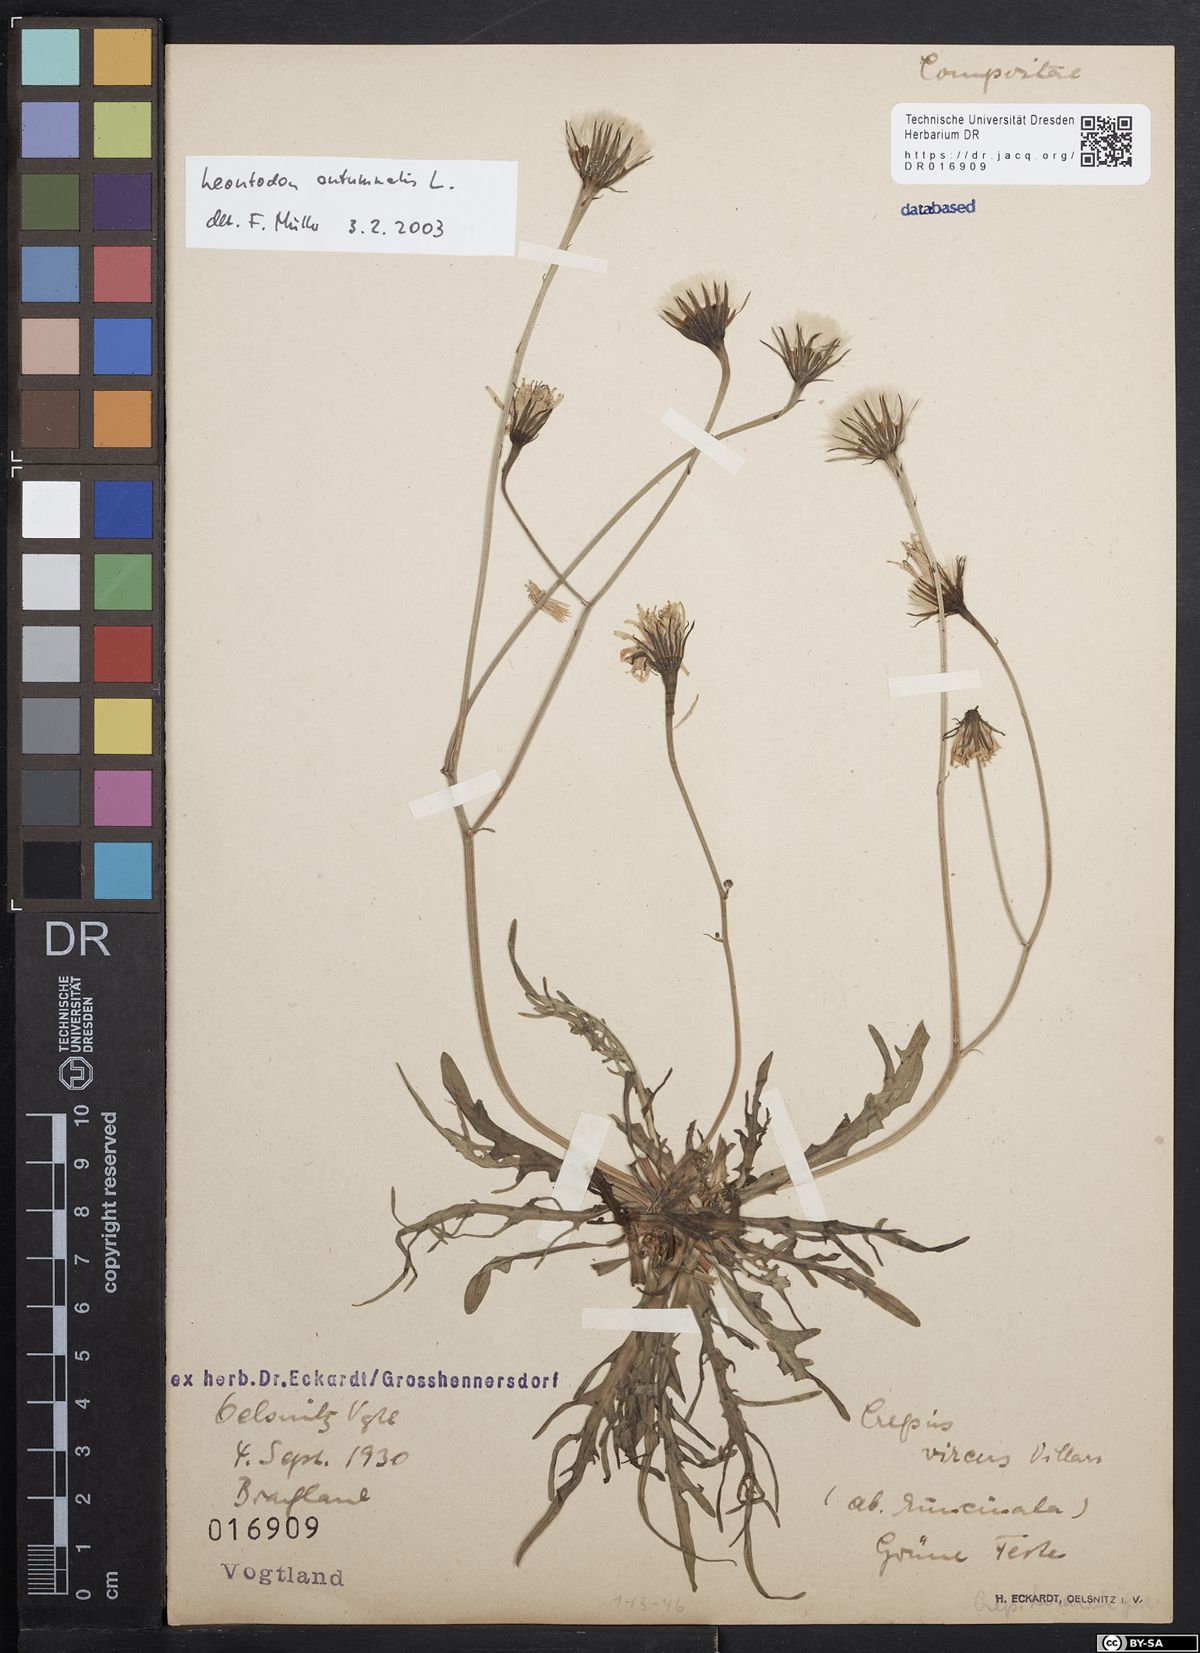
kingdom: Plantae
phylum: Tracheophyta
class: Magnoliopsida
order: Asterales
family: Asteraceae
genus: Scorzoneroides
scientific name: Scorzoneroides autumnalis
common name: Autumn hawkbit
